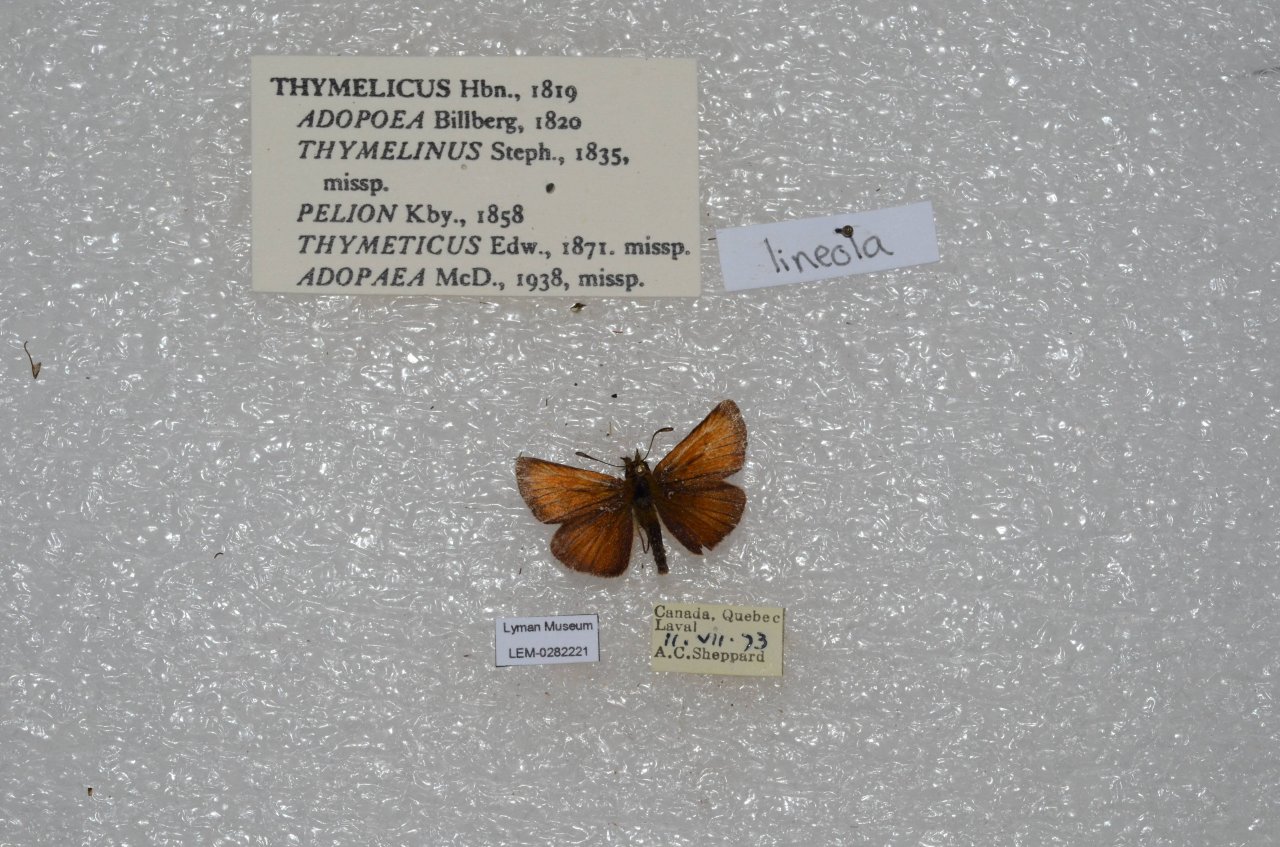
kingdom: Animalia
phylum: Arthropoda
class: Insecta
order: Lepidoptera
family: Hesperiidae
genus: Thymelicus
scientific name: Thymelicus lineola
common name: European Skipper
